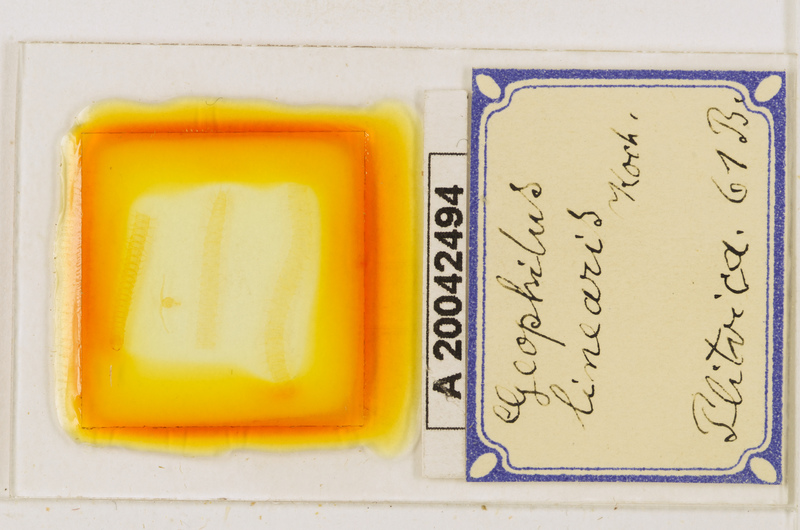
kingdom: Animalia
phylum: Arthropoda
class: Chilopoda
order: Geophilomorpha
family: Geophilidae
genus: Stenotaenia
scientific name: Stenotaenia linearis
